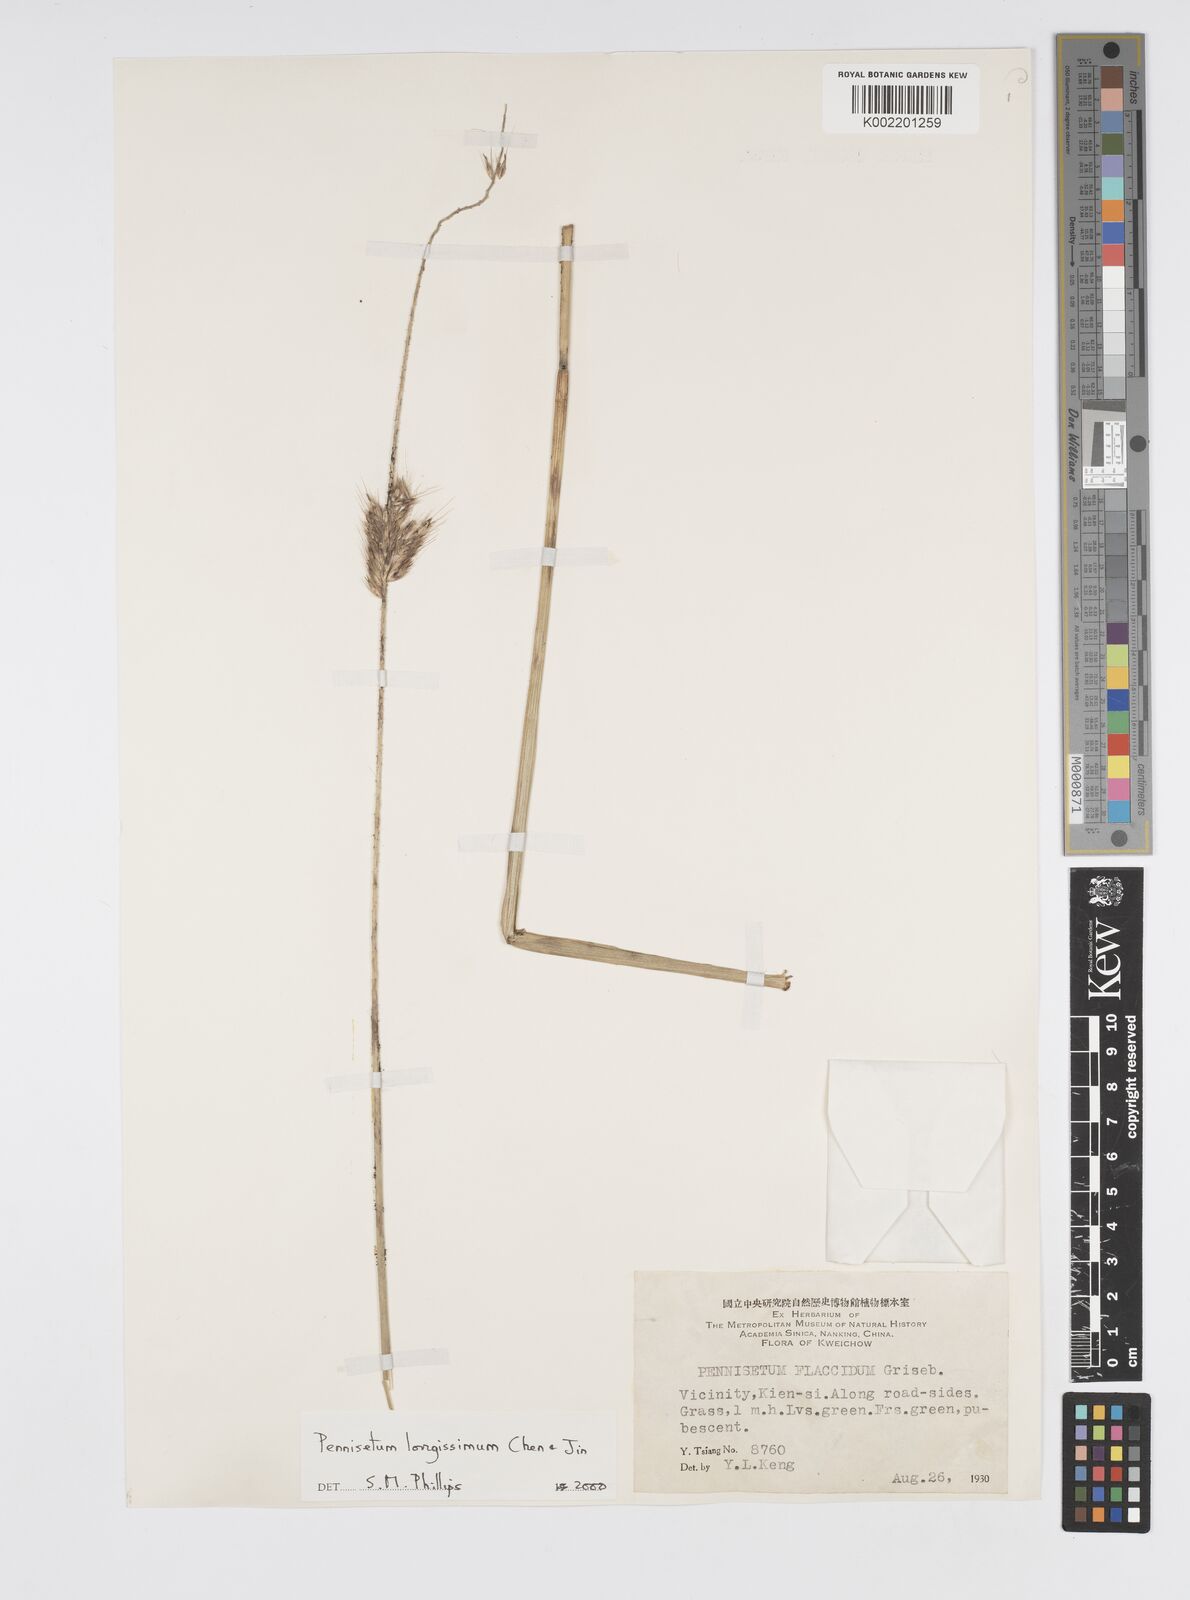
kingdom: Plantae
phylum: Tracheophyta
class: Liliopsida
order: Poales
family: Poaceae
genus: Cenchrus
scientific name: Cenchrus longissimus
